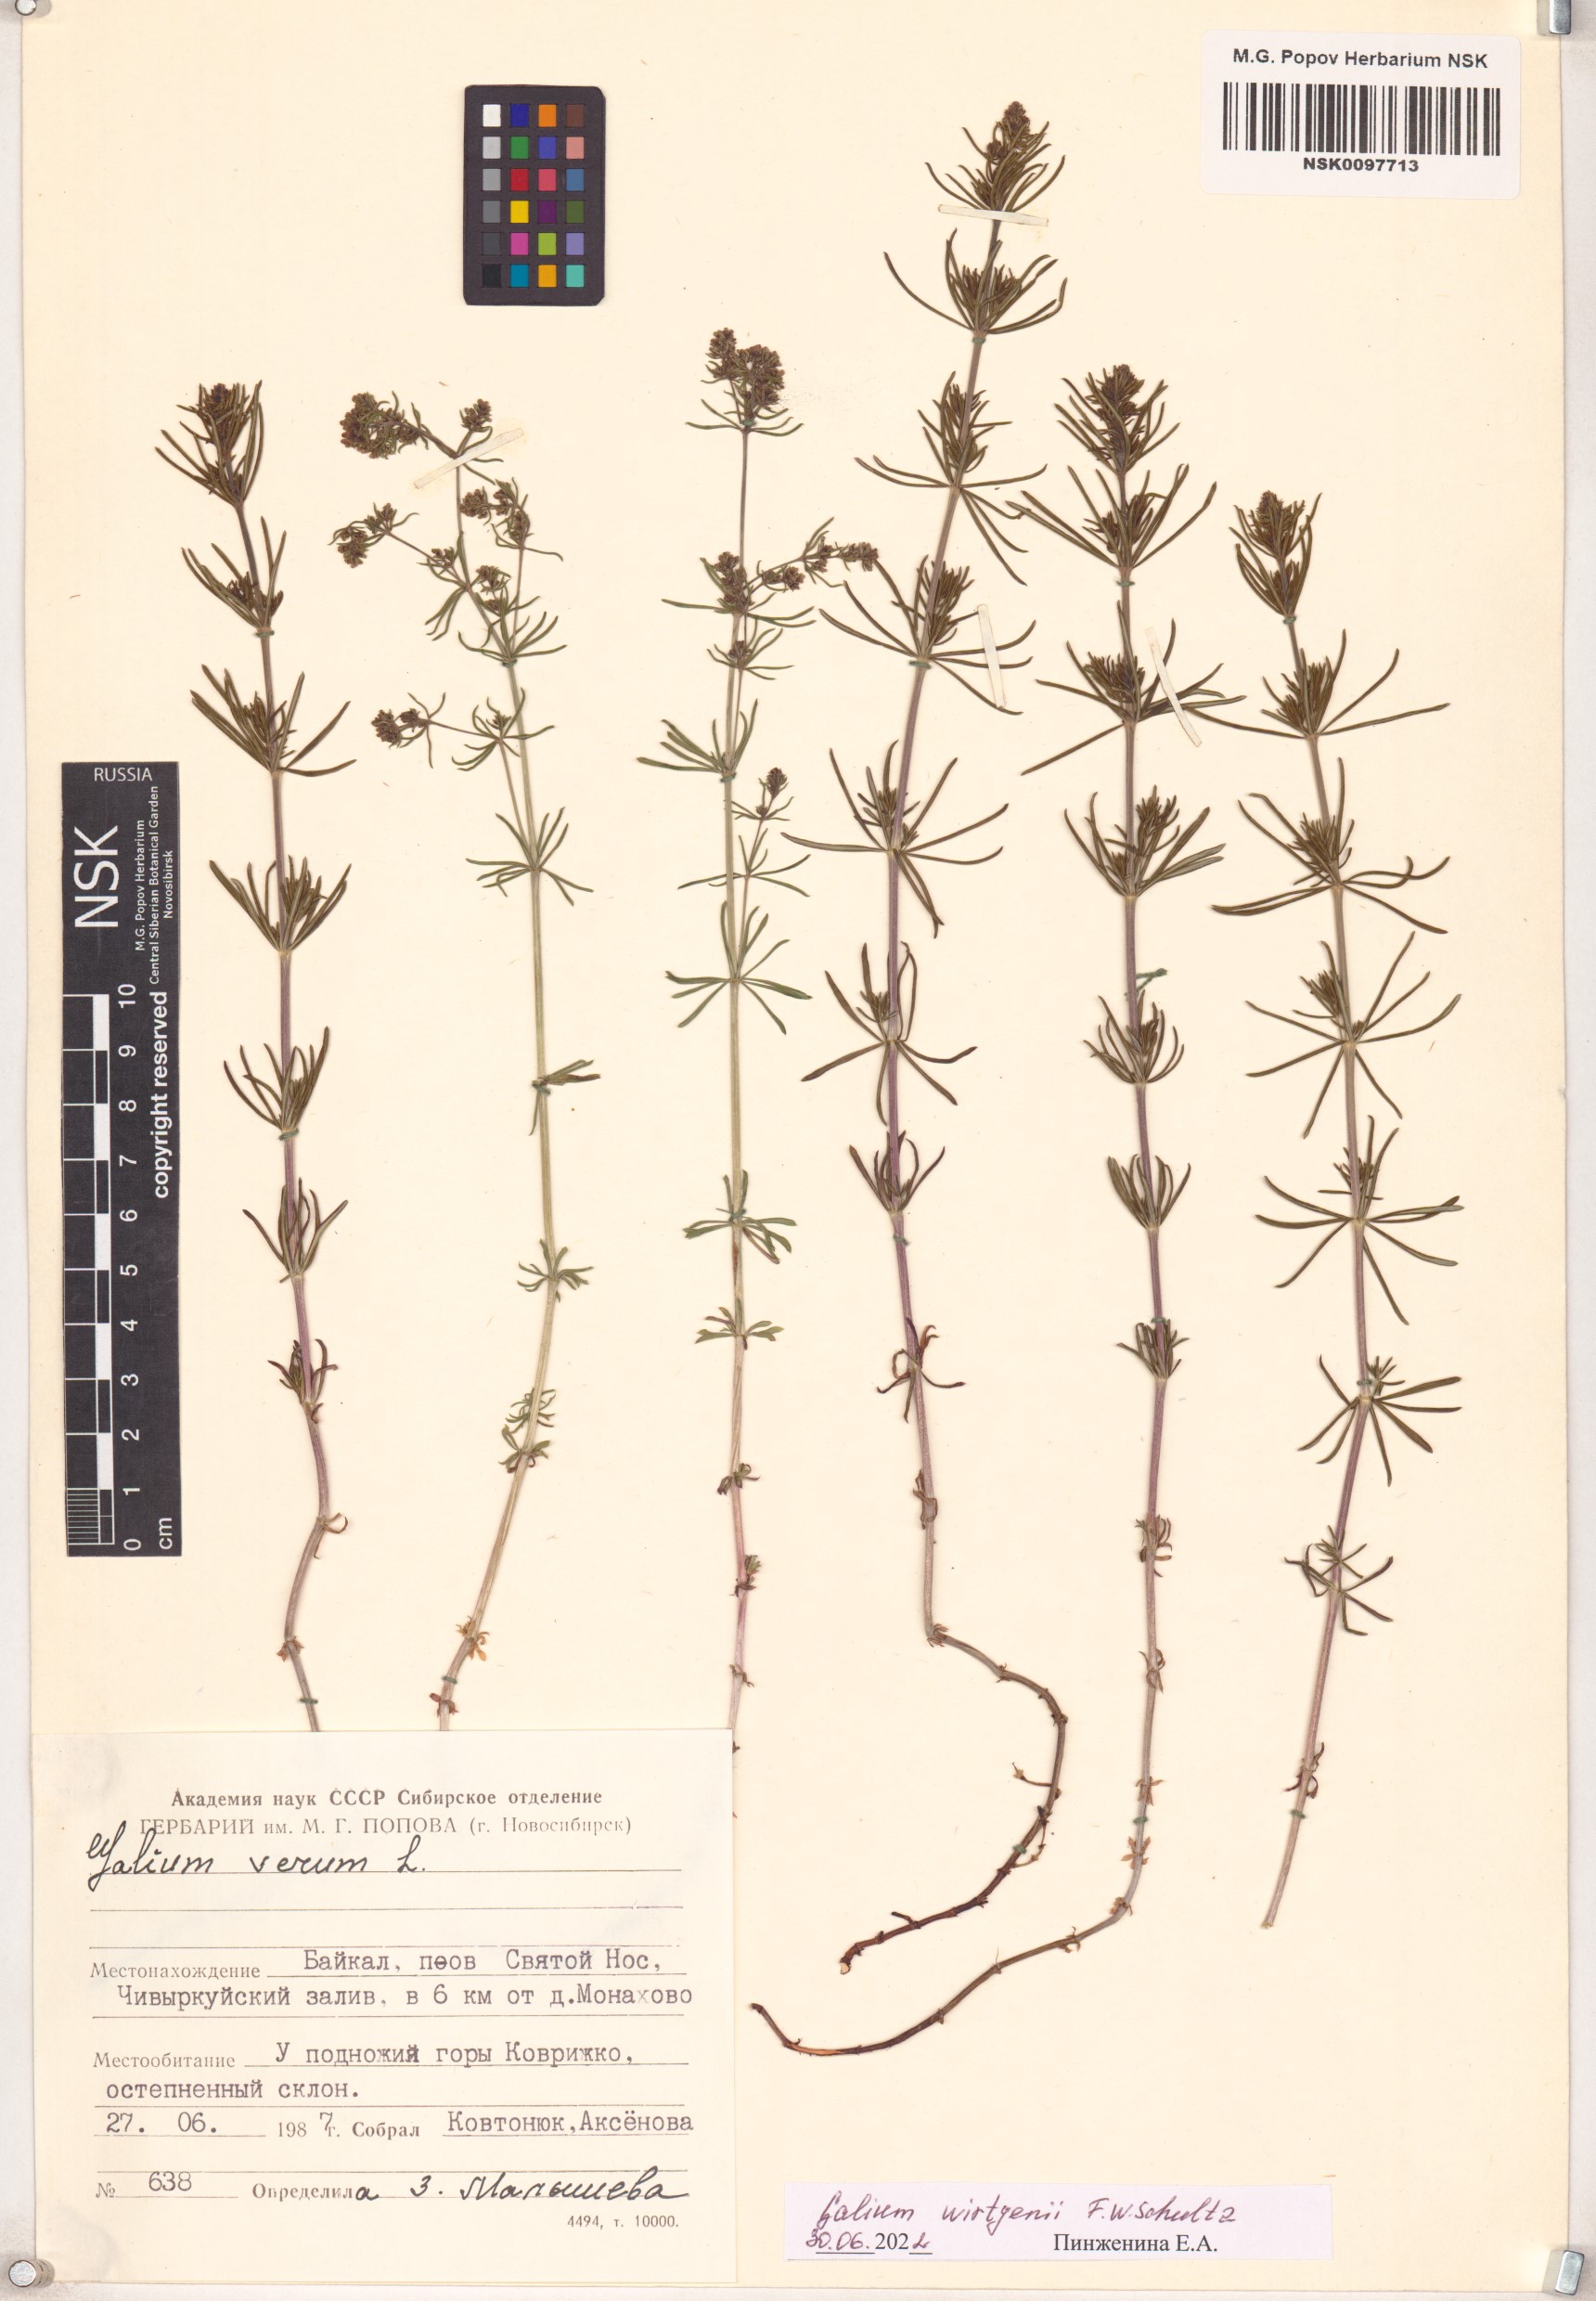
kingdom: Plantae
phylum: Tracheophyta
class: Magnoliopsida
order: Gentianales
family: Rubiaceae
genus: Galium
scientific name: Galium verum
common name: Lady's bedstraw
